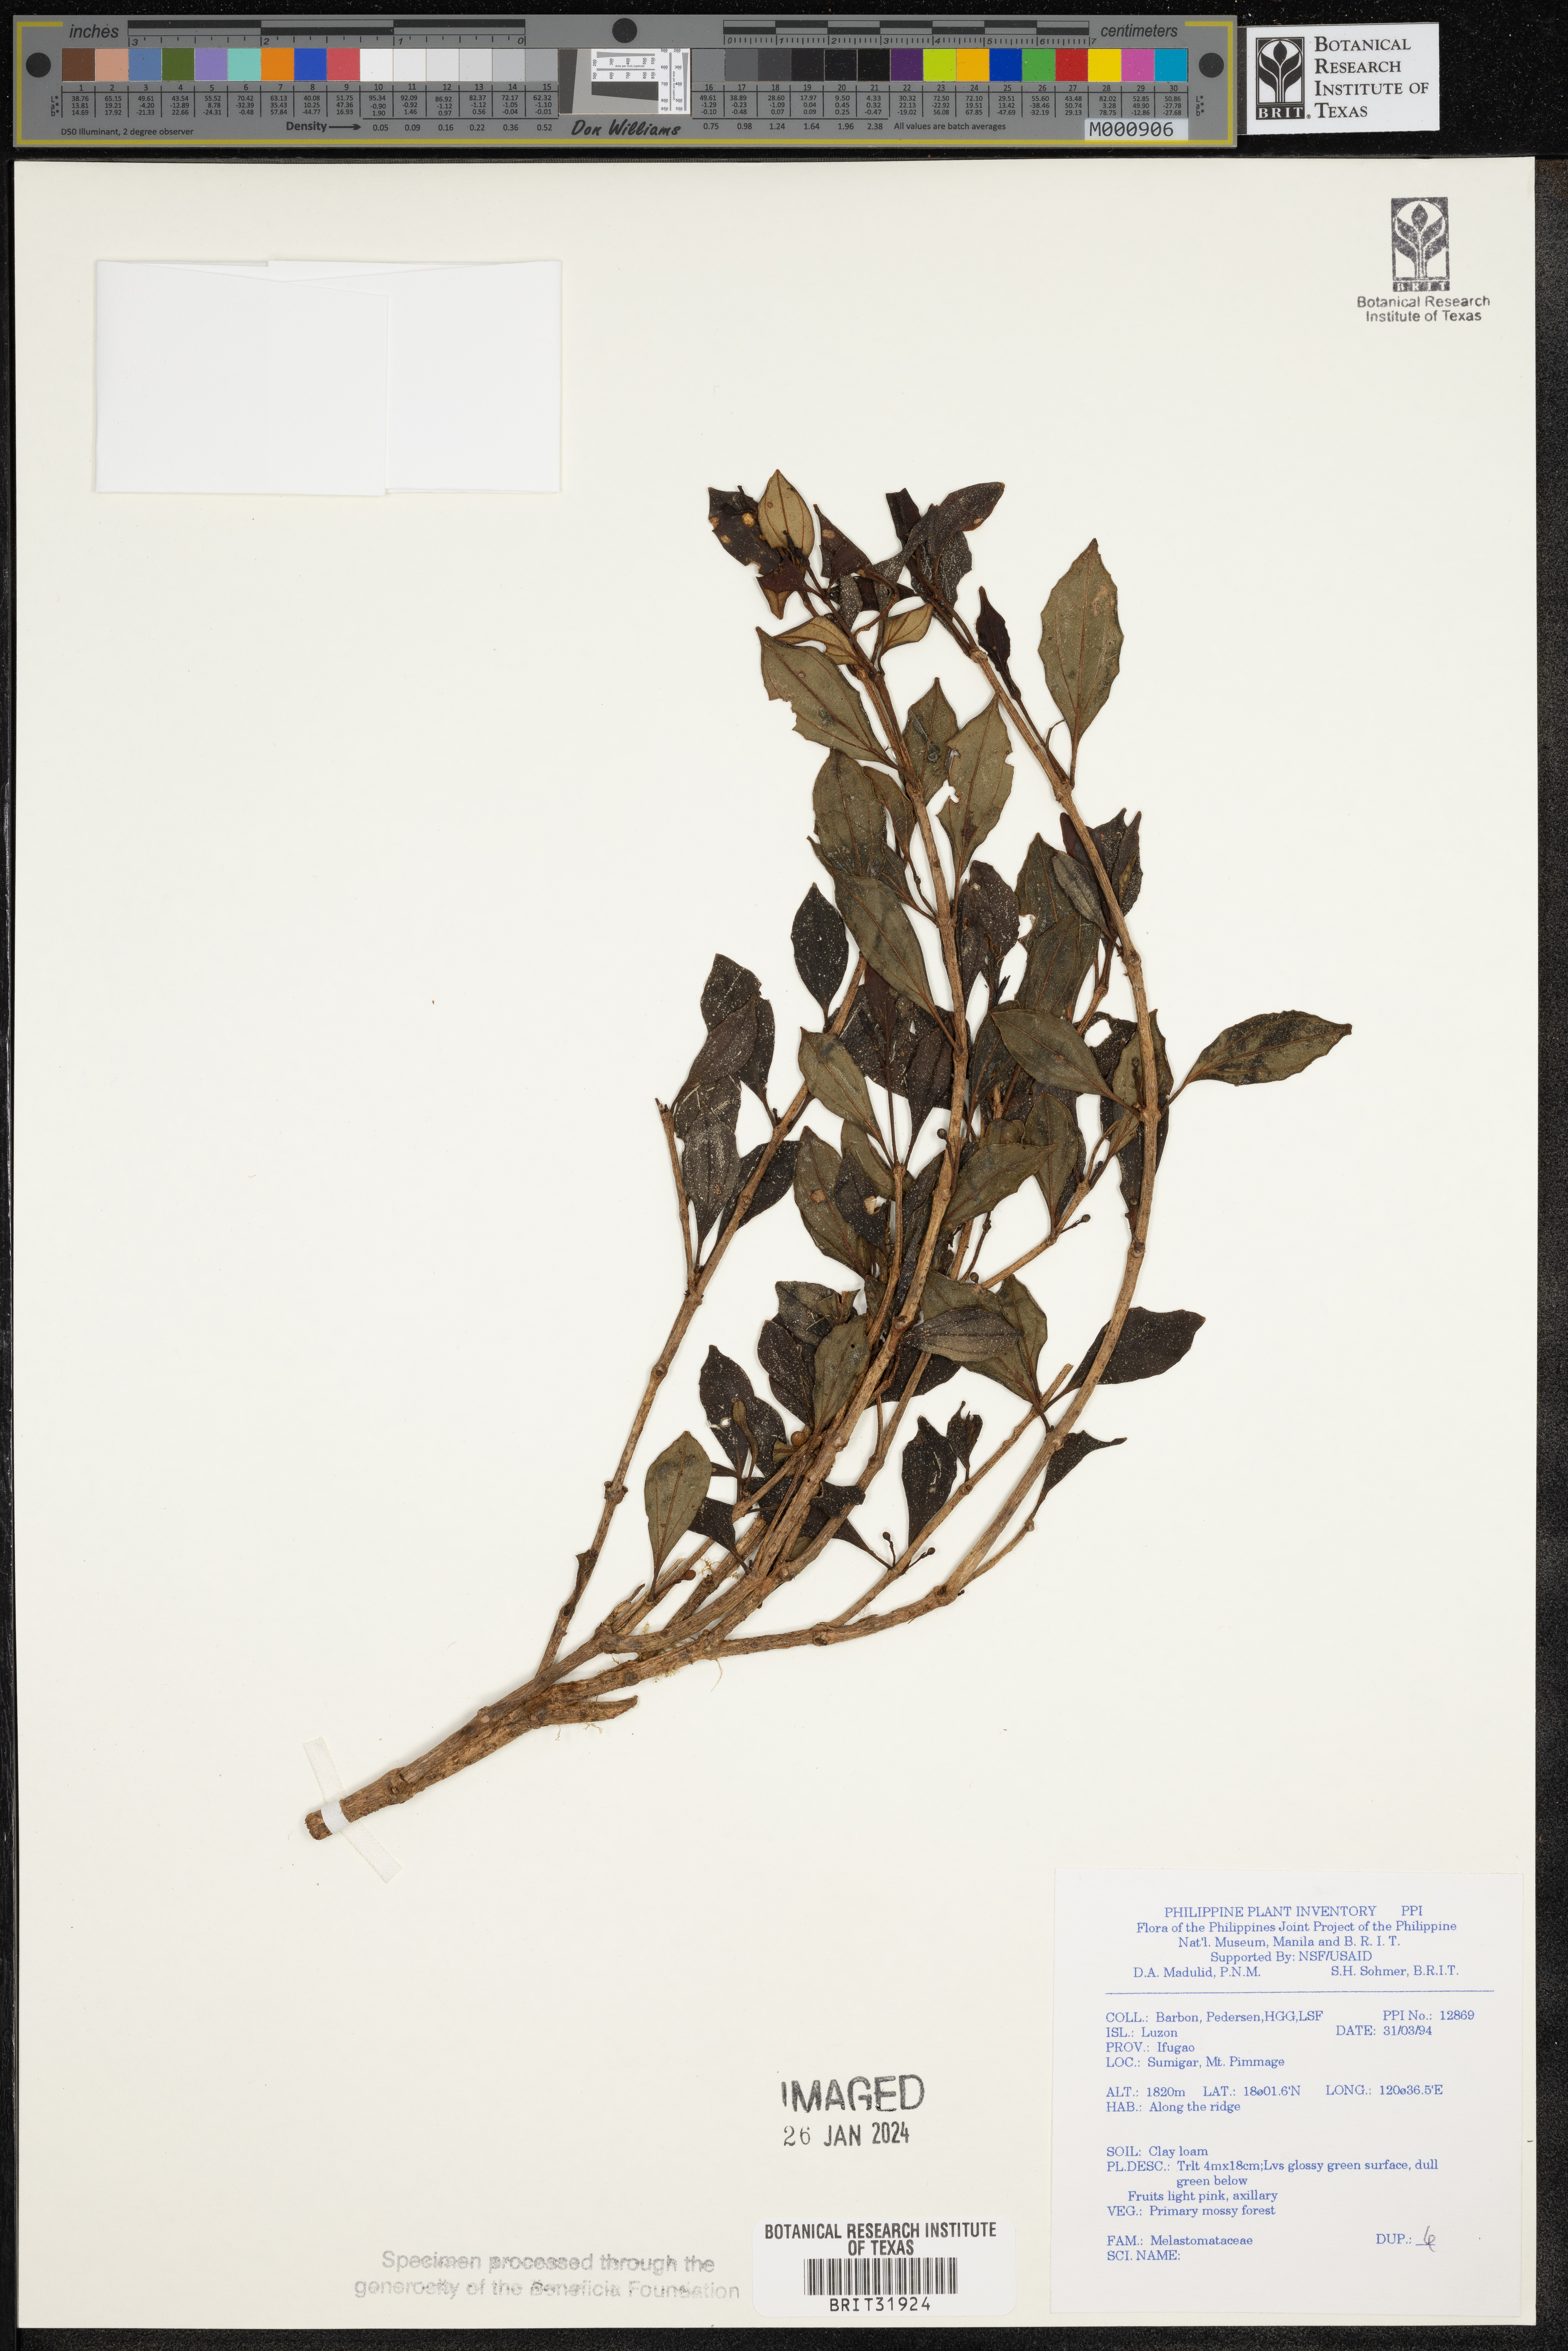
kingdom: Plantae
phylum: Tracheophyta
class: Magnoliopsida
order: Myrtales
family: Melastomataceae
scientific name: Melastomataceae
